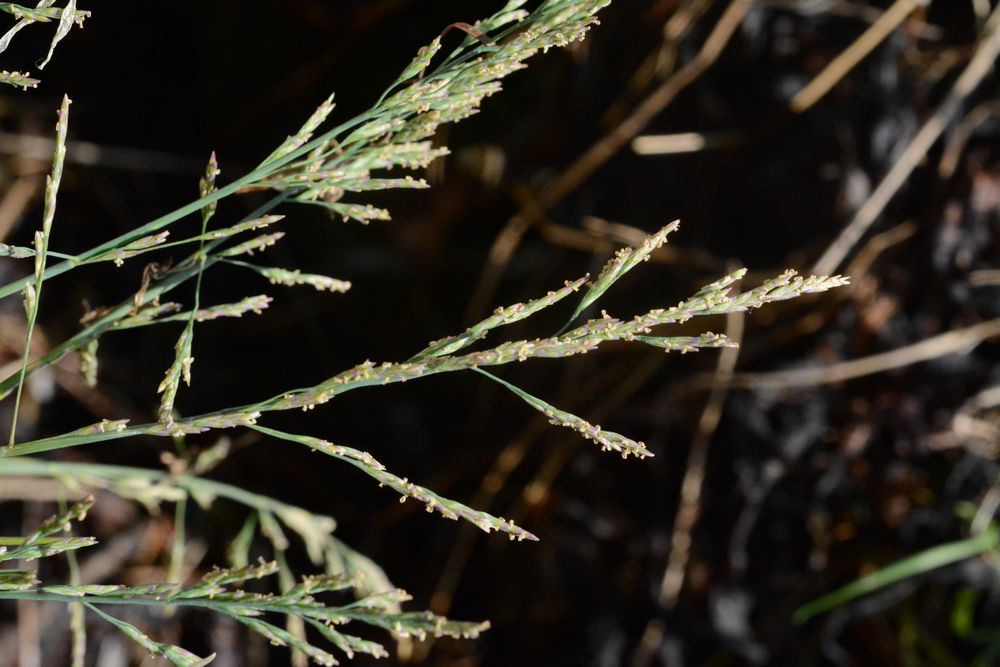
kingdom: Plantae
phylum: Tracheophyta
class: Liliopsida
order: Poales
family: Poaceae
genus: Puccinellia
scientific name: Puccinellia distans
